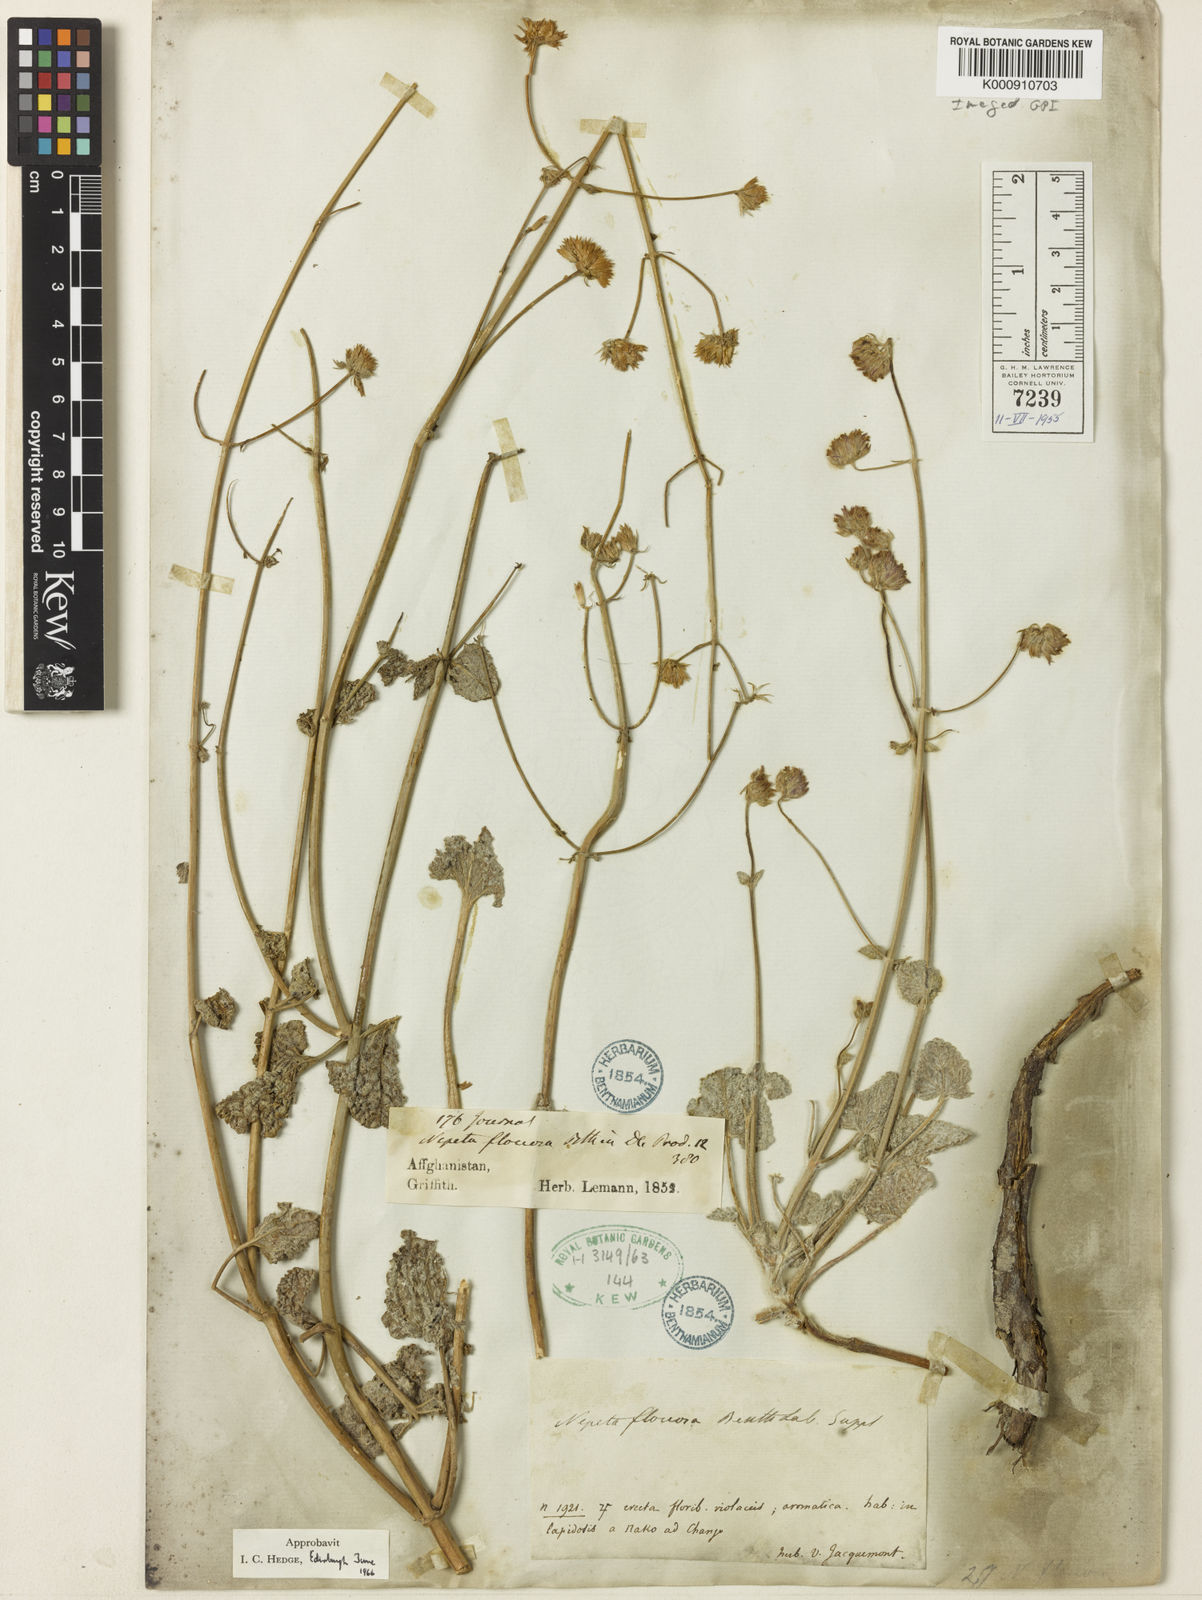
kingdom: Plantae
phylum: Tracheophyta
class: Magnoliopsida
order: Lamiales
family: Lamiaceae
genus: Nepeta
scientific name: Nepeta floccosa
